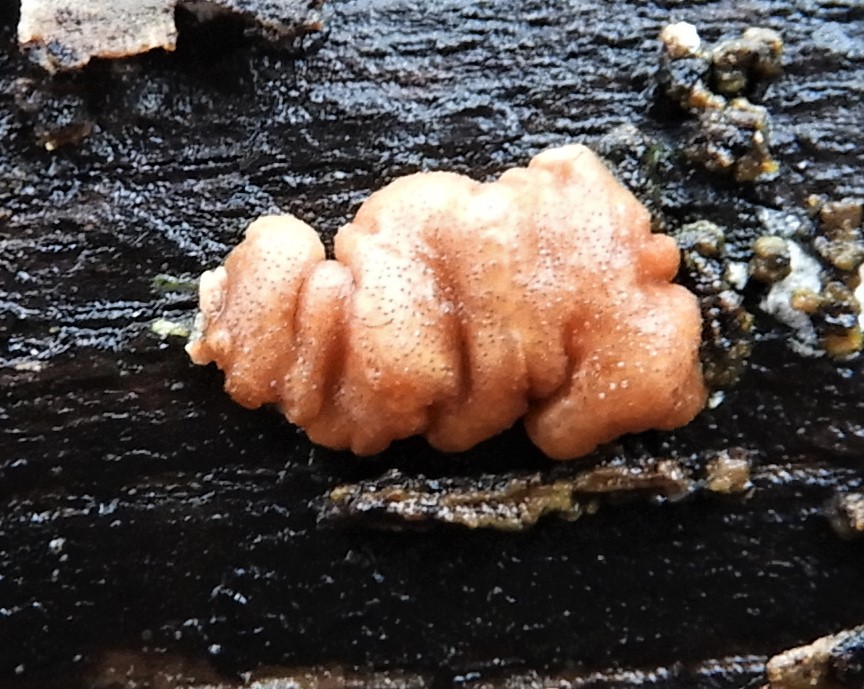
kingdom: Fungi
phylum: Ascomycota
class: Sordariomycetes
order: Hypocreales
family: Hypocreaceae
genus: Trichoderma
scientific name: Trichoderma europaeum
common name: rosabrun kødkerne
